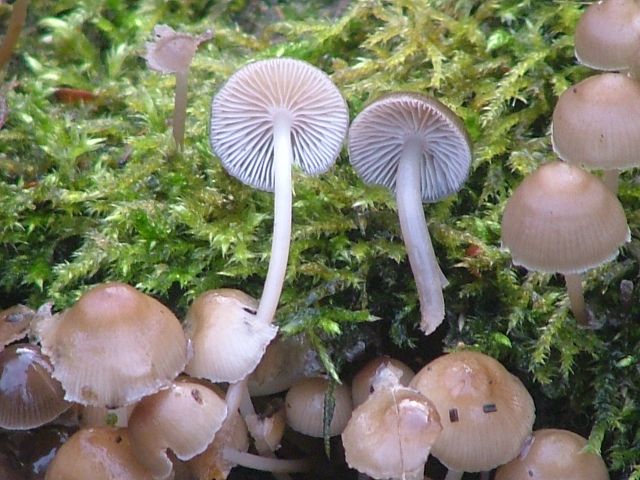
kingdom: Fungi
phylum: Basidiomycota
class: Agaricomycetes
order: Agaricales
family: Mycenaceae
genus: Mycena
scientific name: Mycena tintinnabulum
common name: vinter-huesvamp
